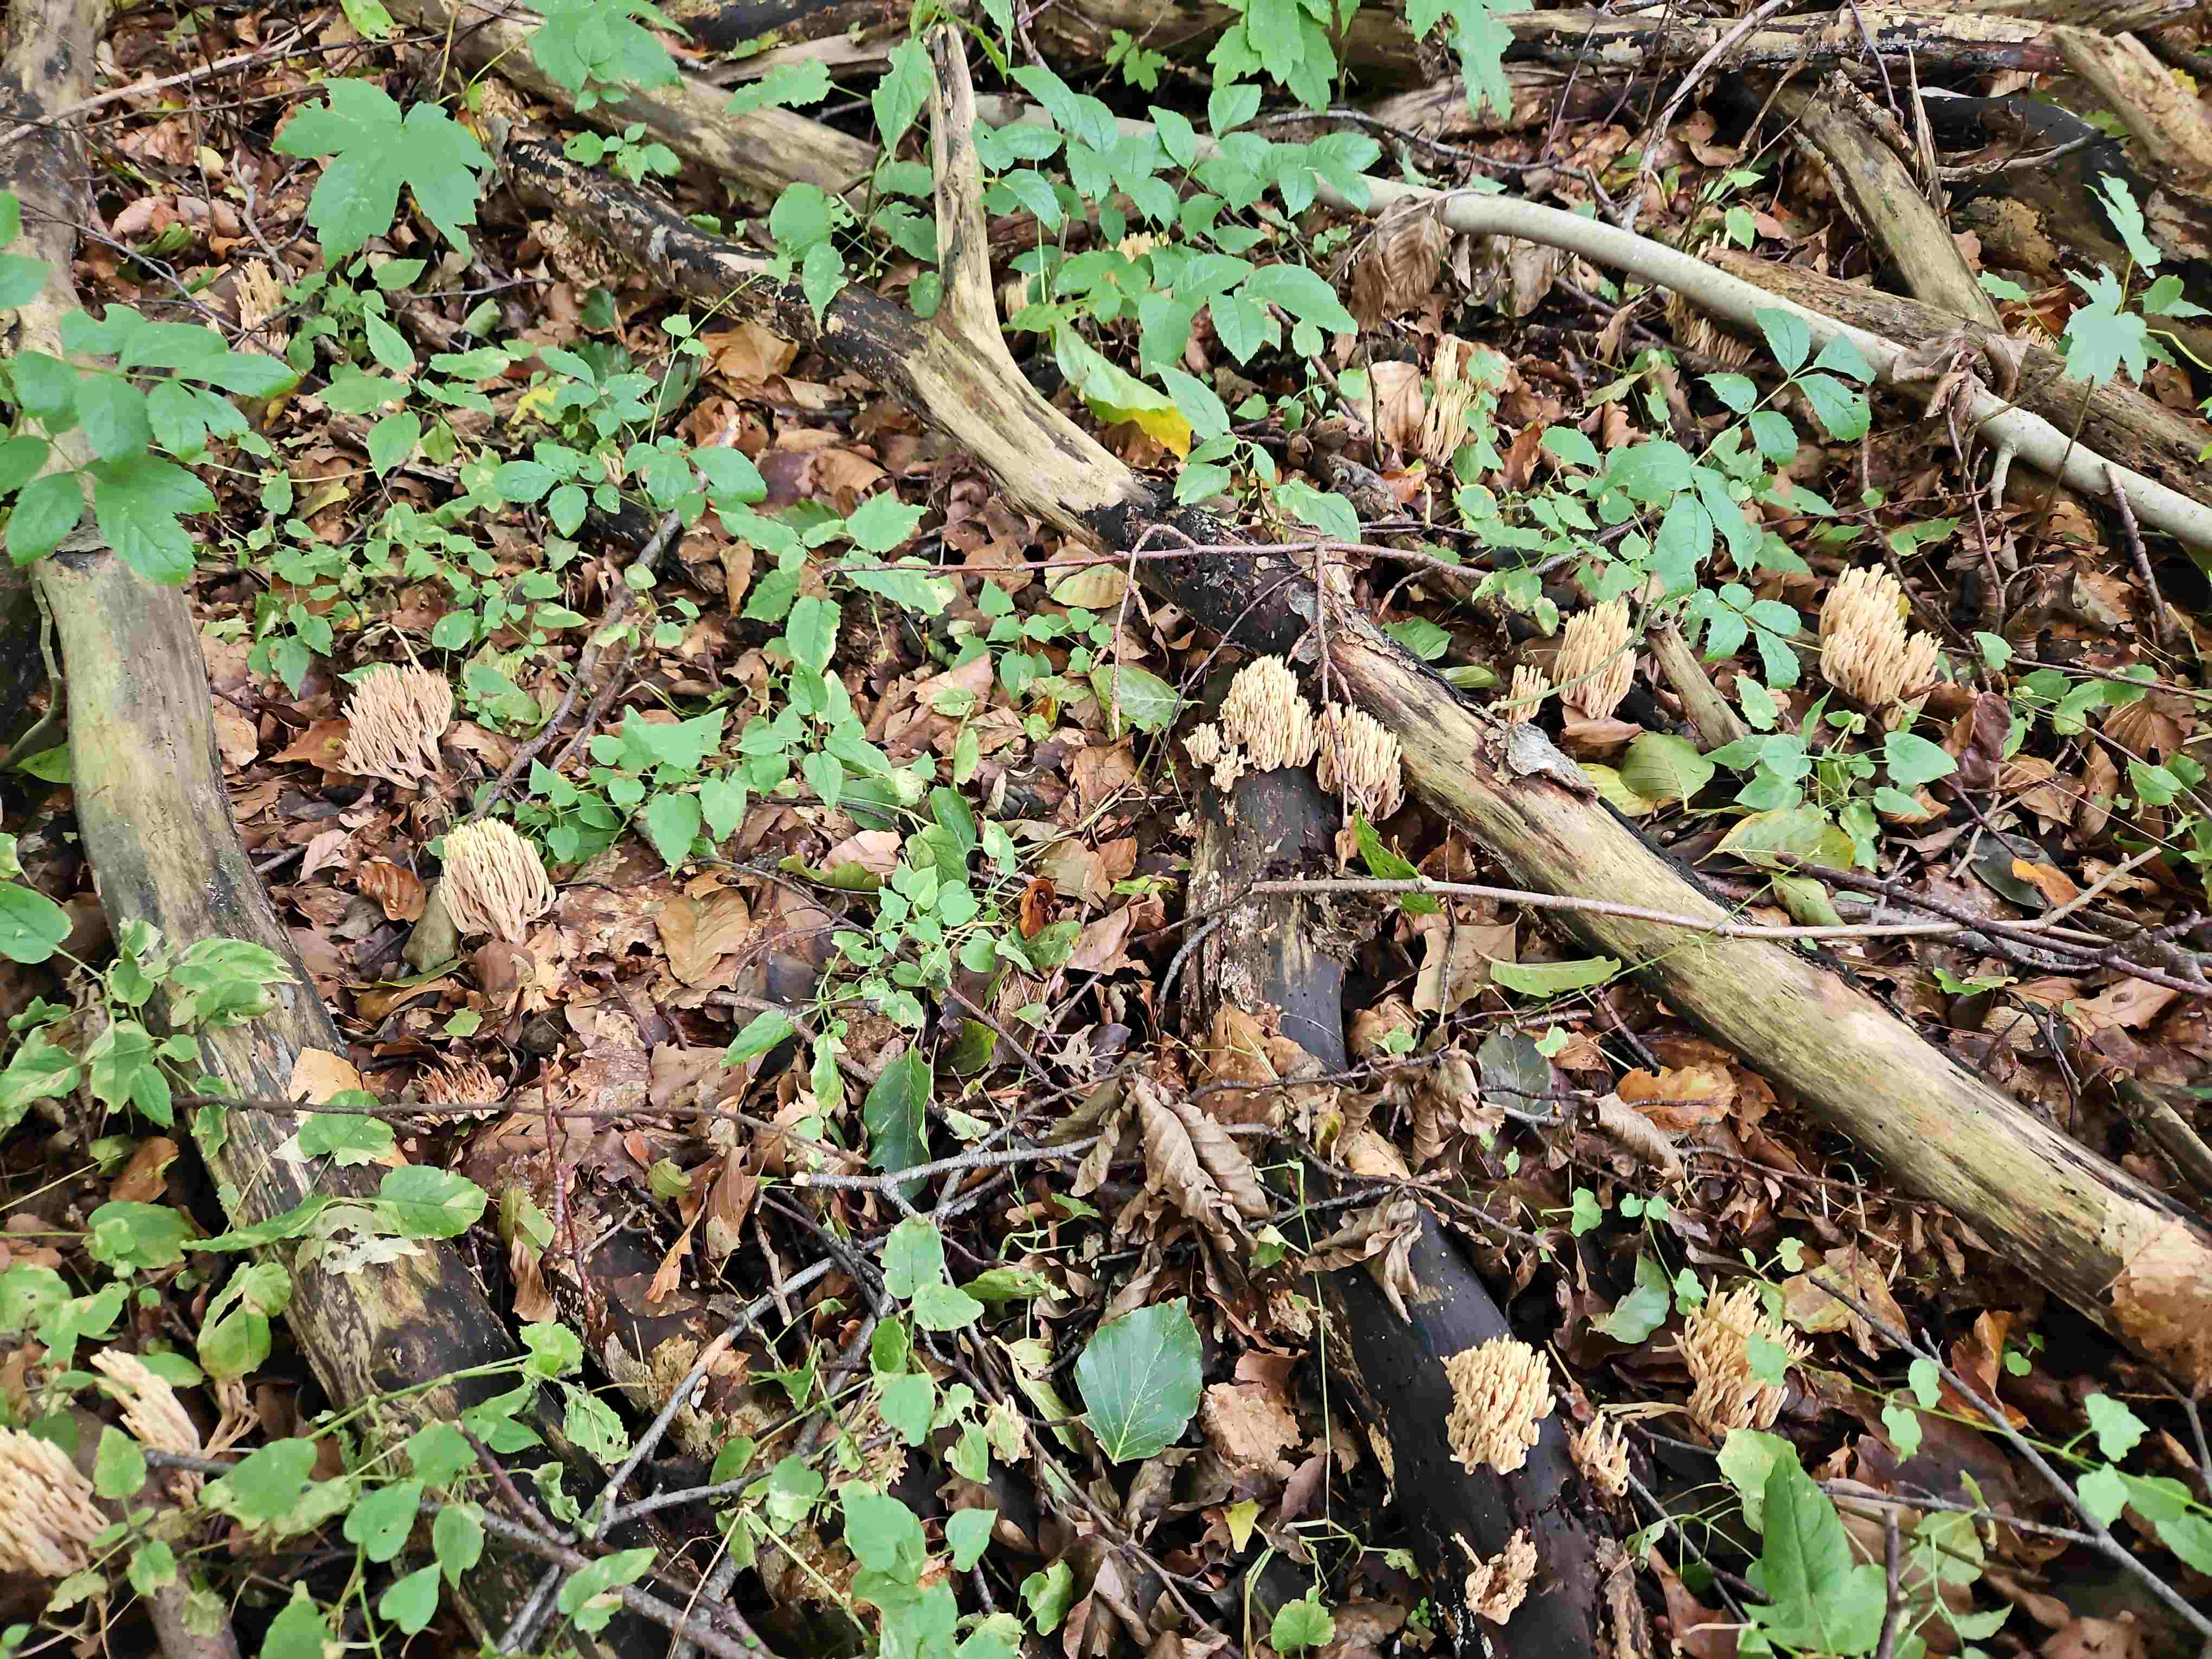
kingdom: Fungi
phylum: Basidiomycota
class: Agaricomycetes
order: Gomphales
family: Gomphaceae
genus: Ramaria
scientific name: Ramaria stricta
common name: rank koralsvamp
